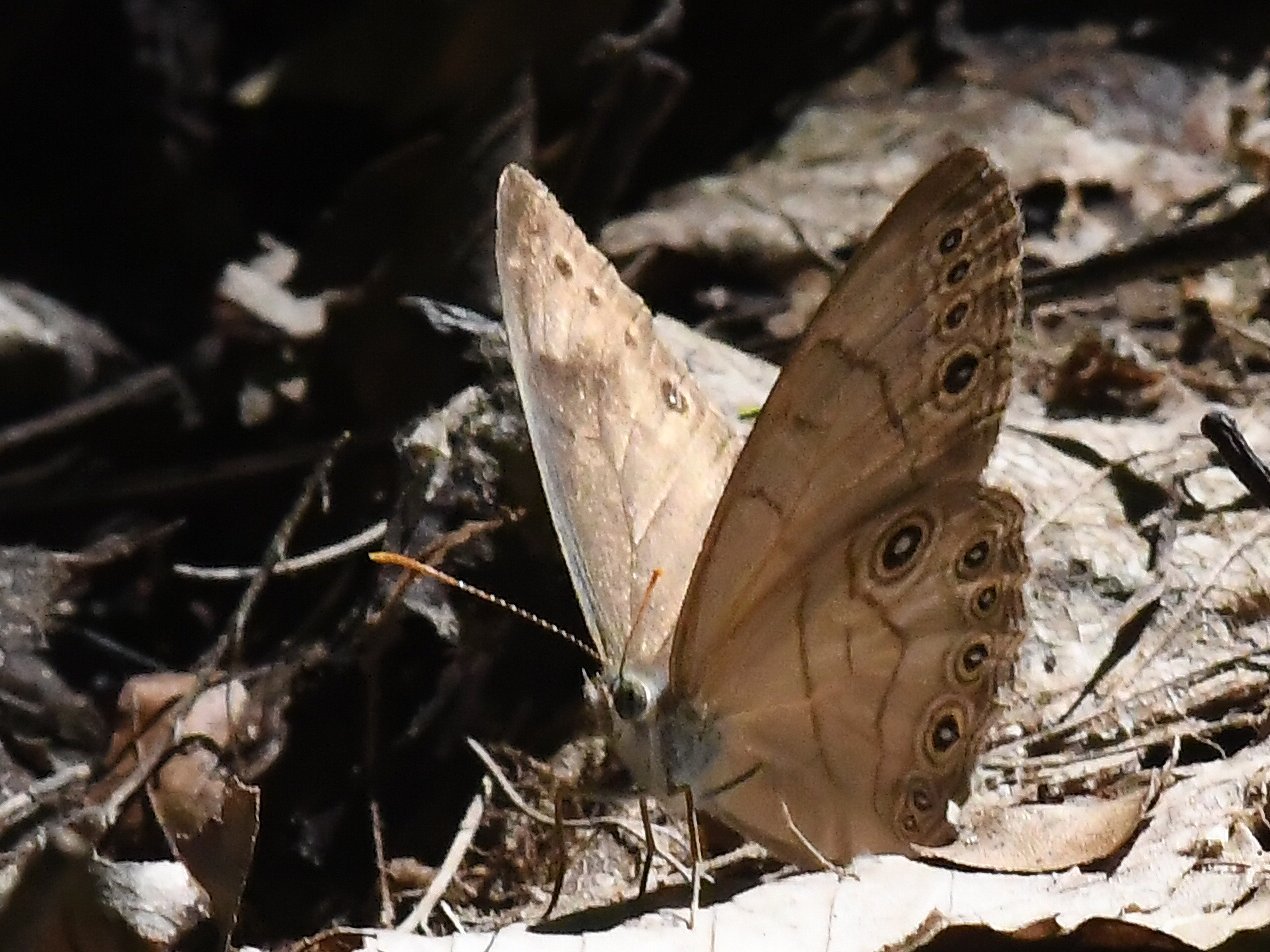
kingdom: Animalia
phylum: Arthropoda
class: Insecta
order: Lepidoptera
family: Nymphalidae
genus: Lethe
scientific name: Lethe eurydice
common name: Appalachian Eyed Brown
